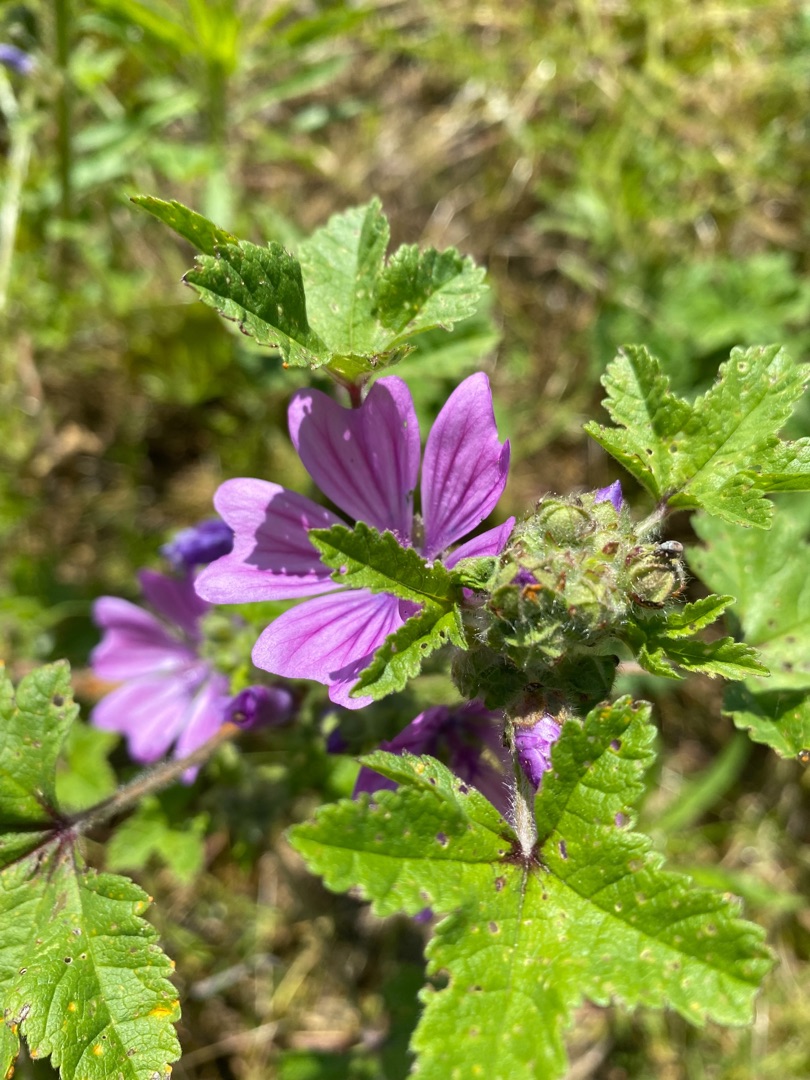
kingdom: Plantae
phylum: Tracheophyta
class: Magnoliopsida
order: Malvales
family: Malvaceae
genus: Malva
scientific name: Malva sylvestris
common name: Almindelig katost
